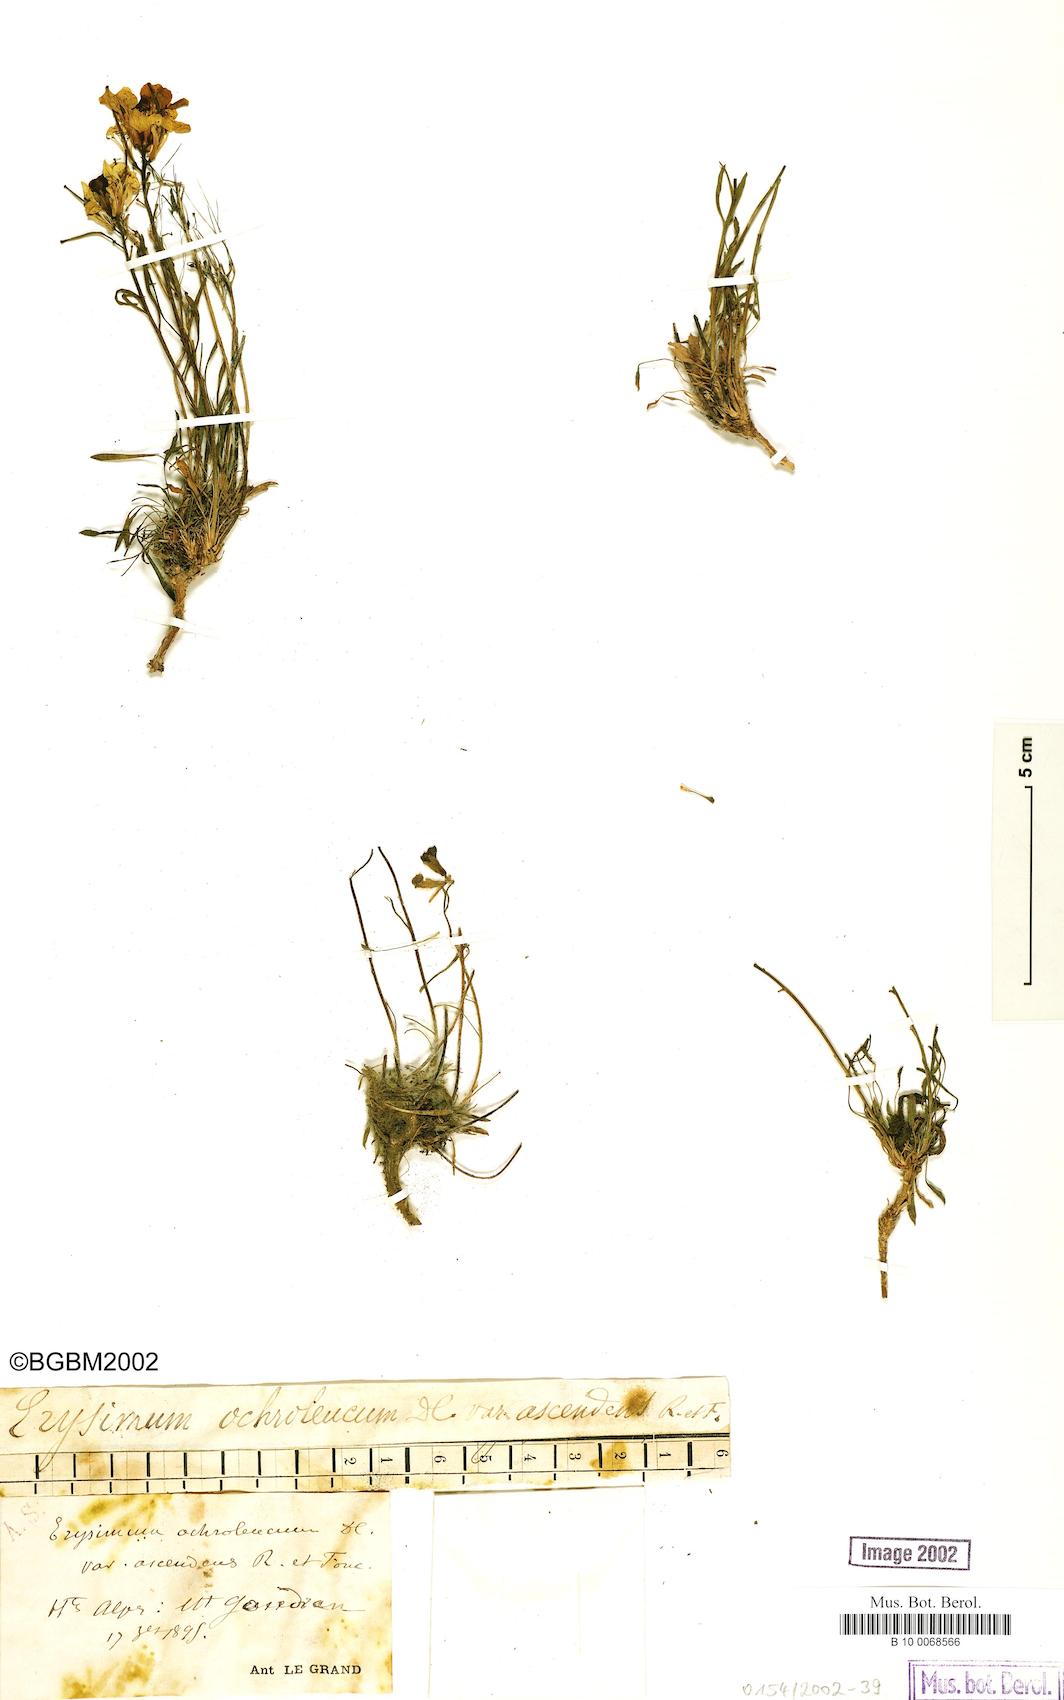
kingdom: Plantae
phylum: Tracheophyta
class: Magnoliopsida
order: Brassicales
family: Brassicaceae
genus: Erysimum
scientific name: Erysimum jugicolum
